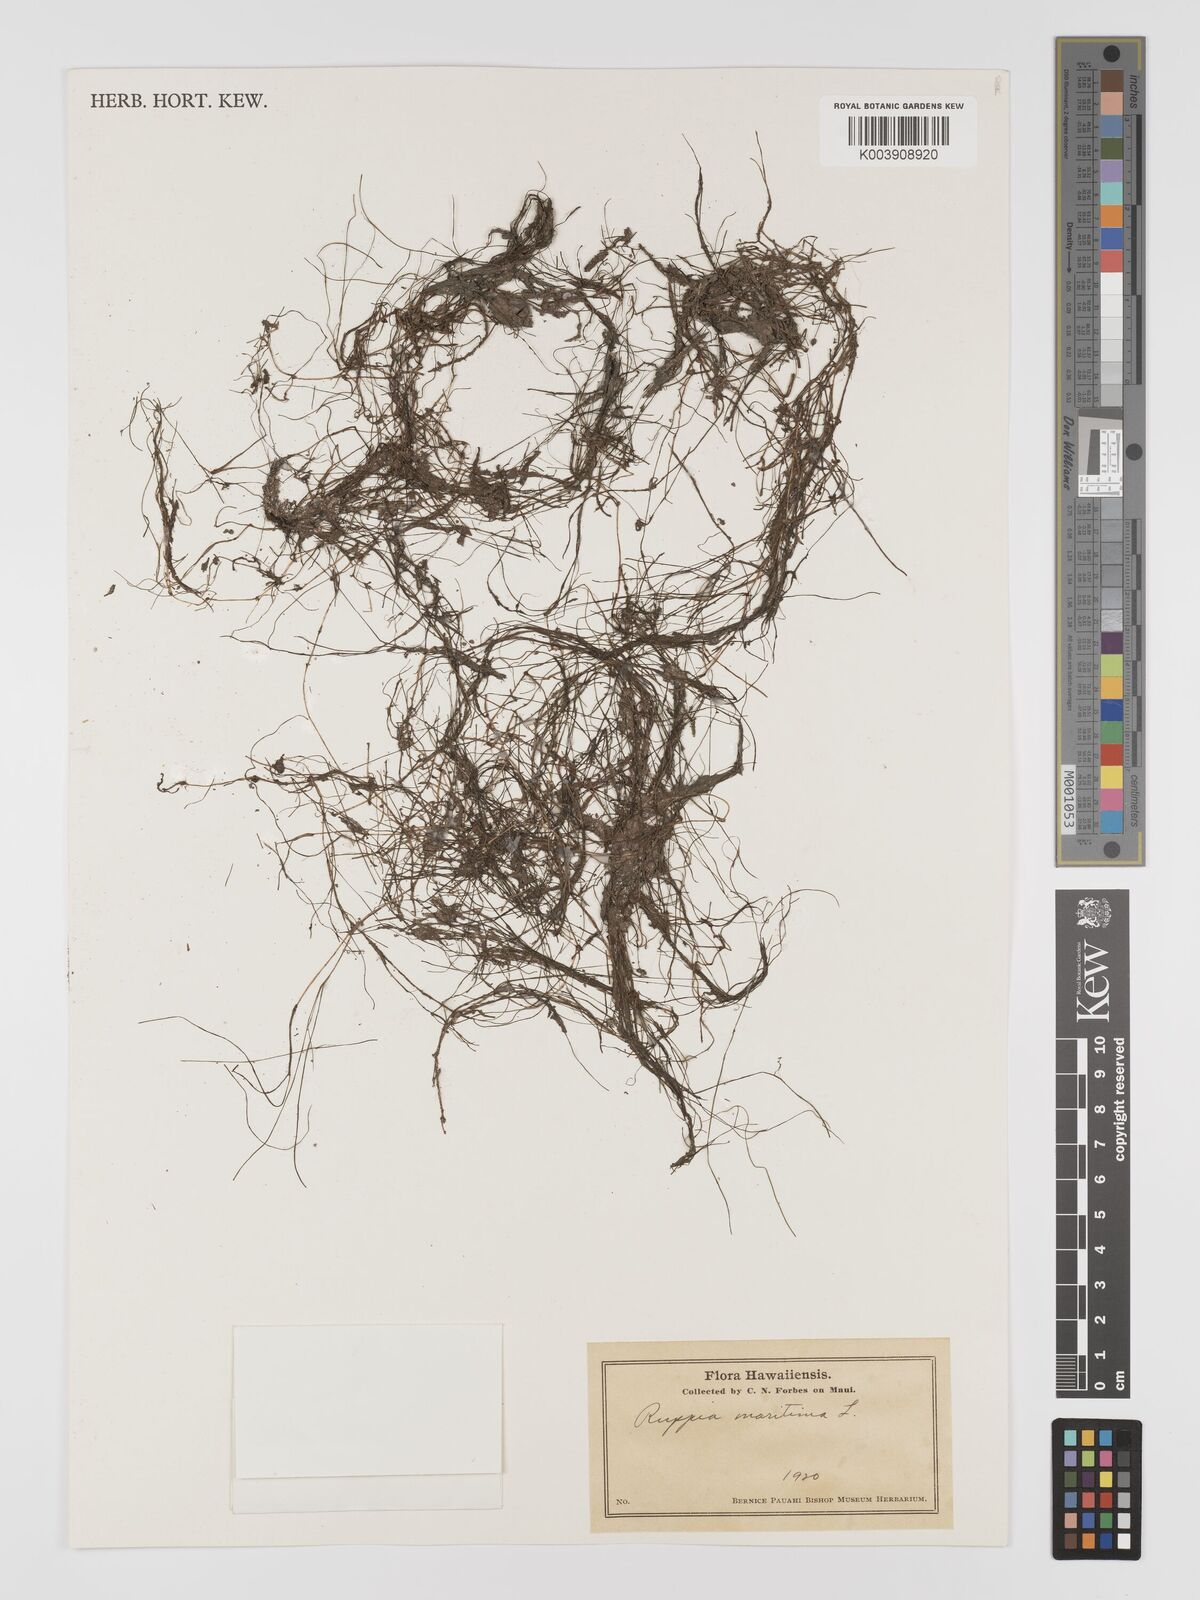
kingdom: Plantae
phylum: Tracheophyta
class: Liliopsida
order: Alismatales
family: Ruppiaceae
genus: Ruppia
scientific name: Ruppia maritima
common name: Beaked tasselweed
